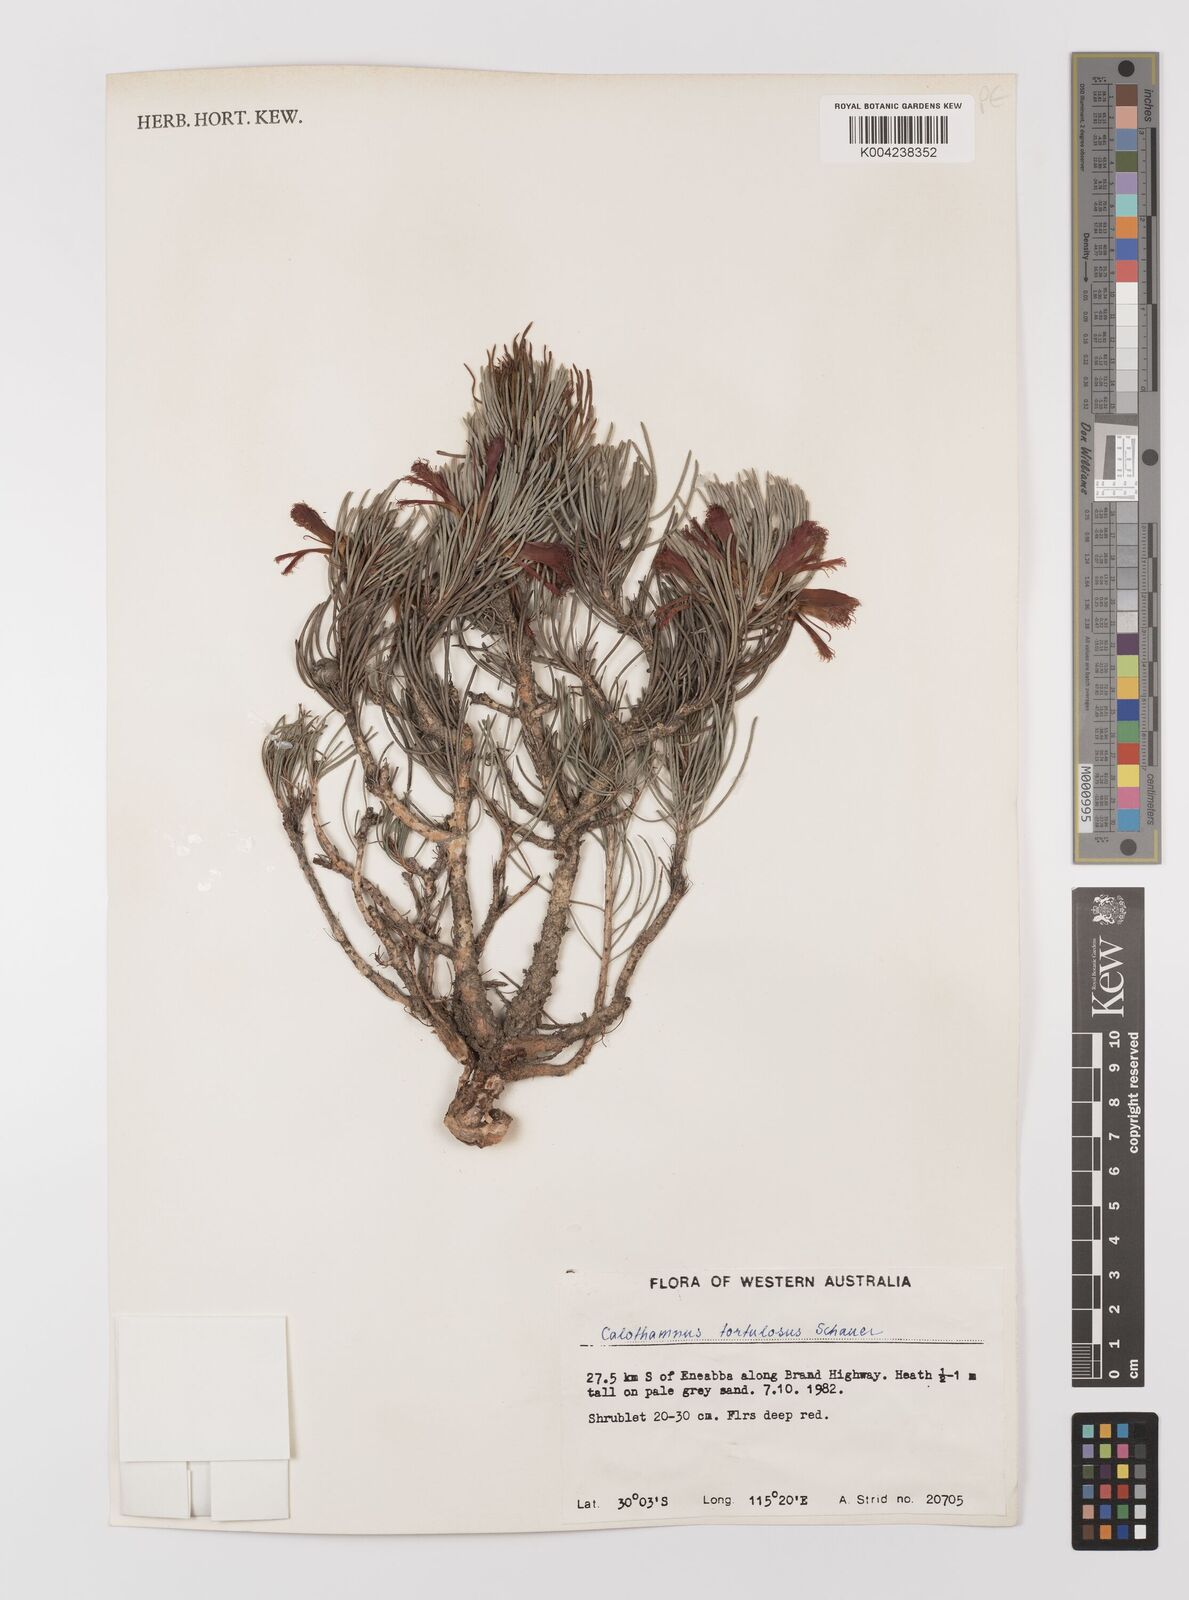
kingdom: Plantae
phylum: Tracheophyta
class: Magnoliopsida
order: Myrtales
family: Myrtaceae
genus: Melaleuca
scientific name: Melaleuca torulosa
